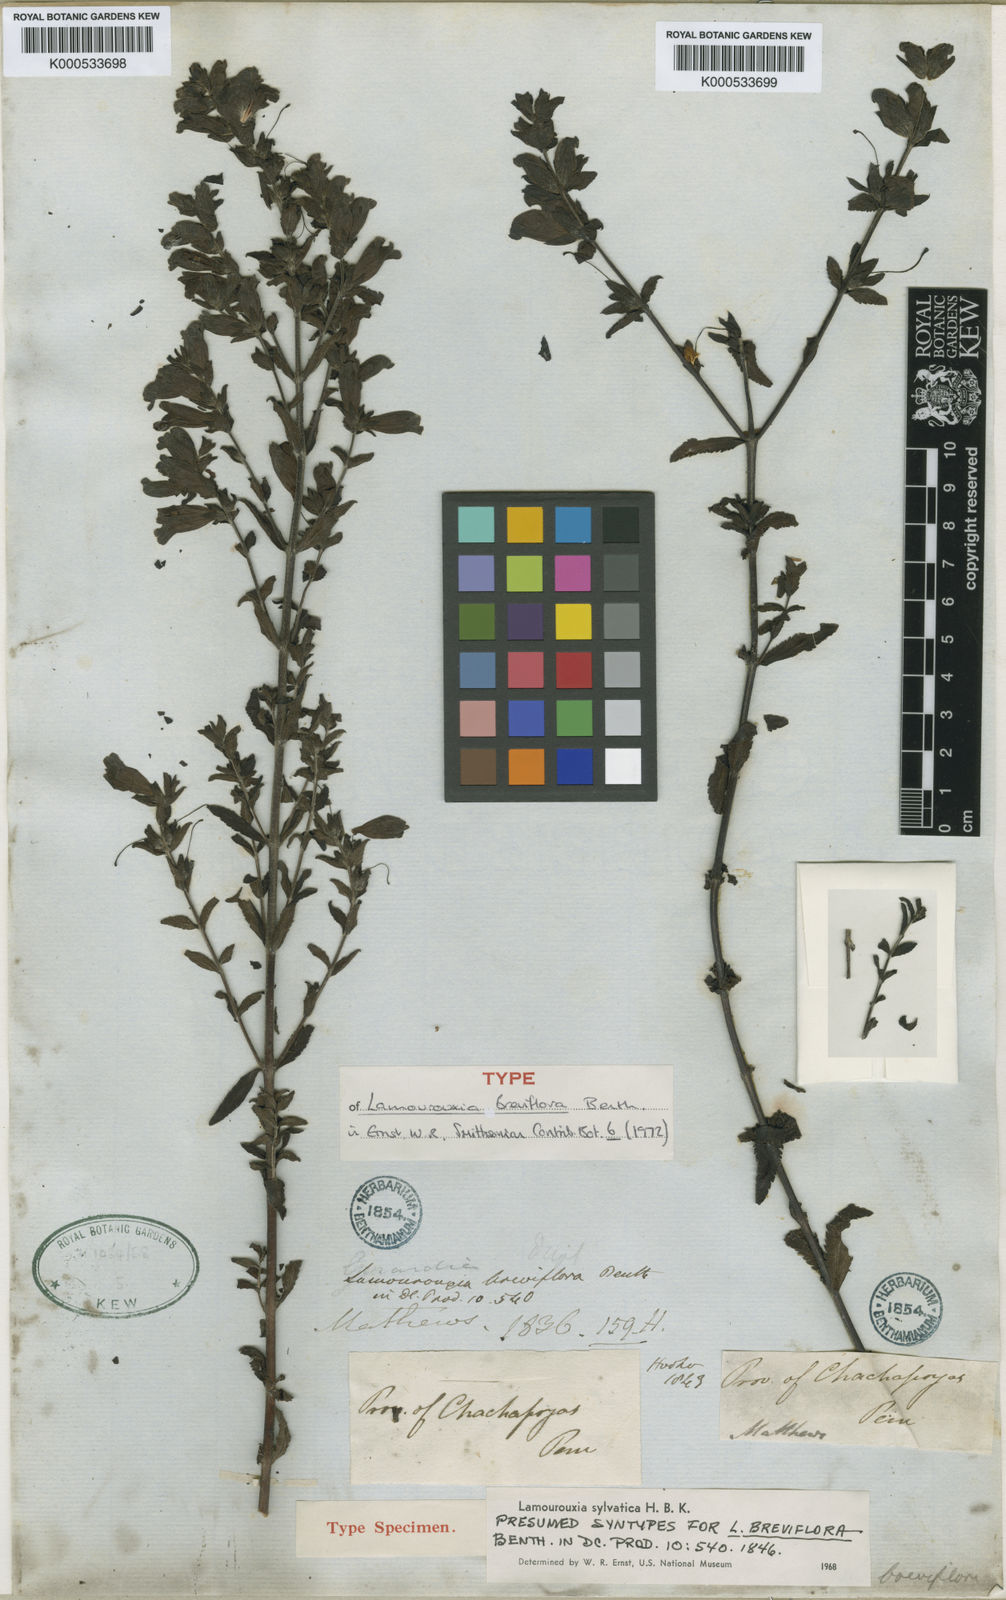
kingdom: Plantae
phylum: Tracheophyta
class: Magnoliopsida
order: Lamiales
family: Orobanchaceae
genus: Lamourouxia
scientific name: Lamourouxia sylvatica
